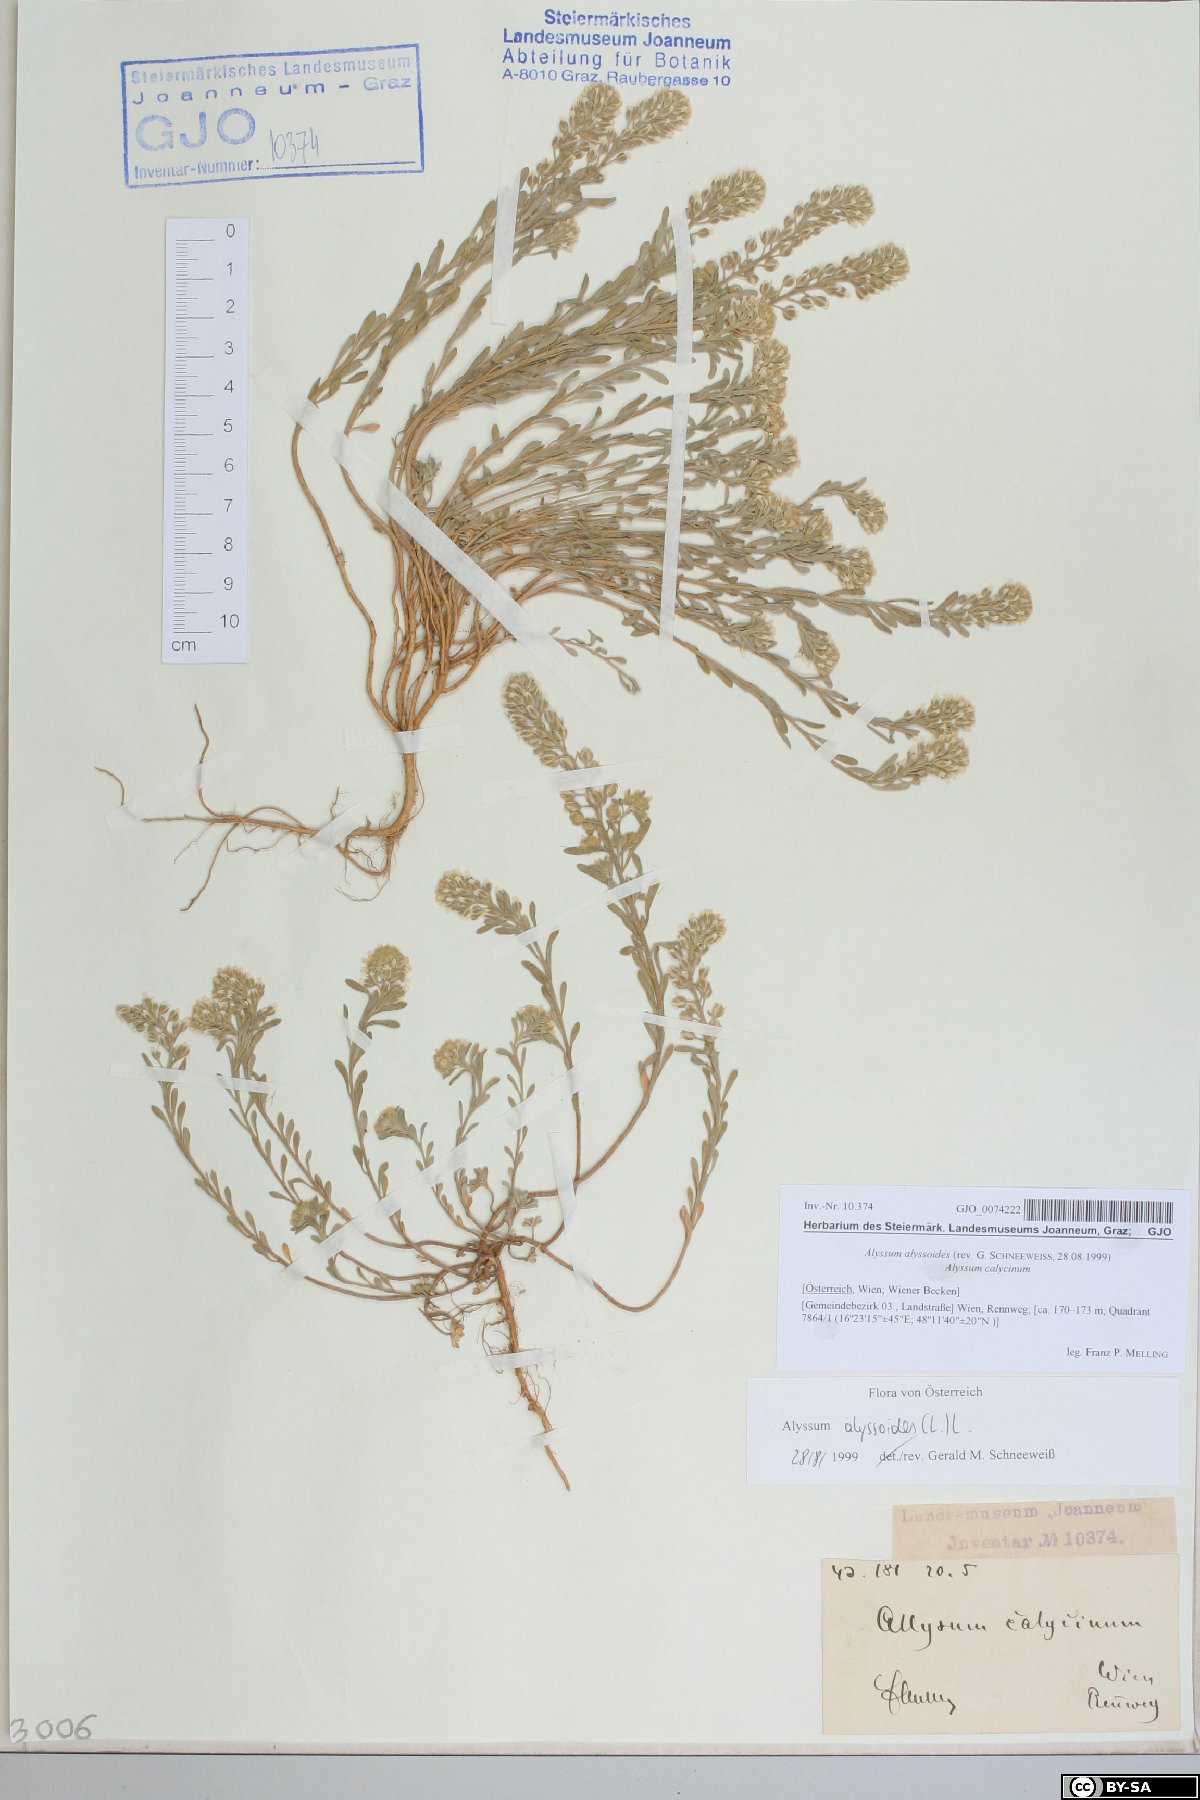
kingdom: Plantae
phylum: Tracheophyta
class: Magnoliopsida
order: Brassicales
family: Brassicaceae
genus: Alyssum
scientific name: Alyssum alyssoides
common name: Small alison
